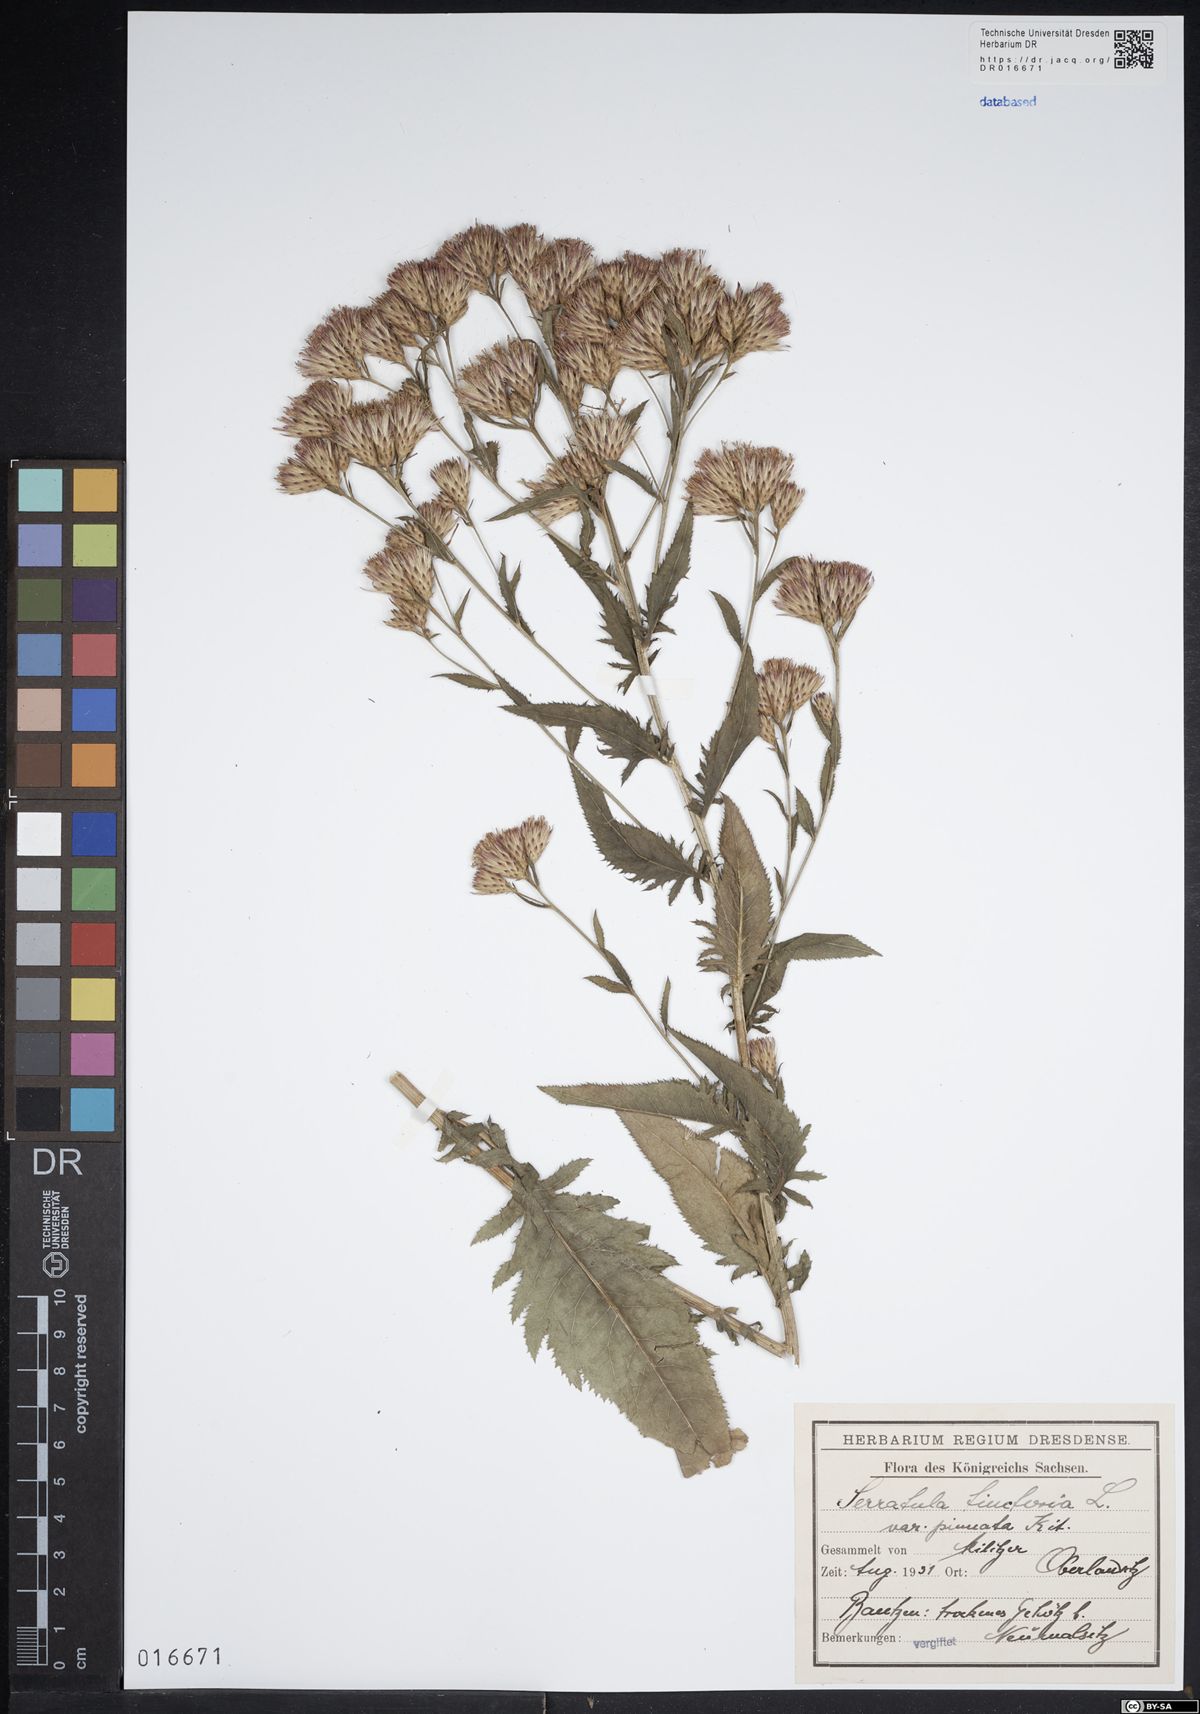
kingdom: Plantae
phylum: Tracheophyta
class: Magnoliopsida
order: Asterales
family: Asteraceae
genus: Serratula
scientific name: Serratula tinctoria
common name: Saw-wort
